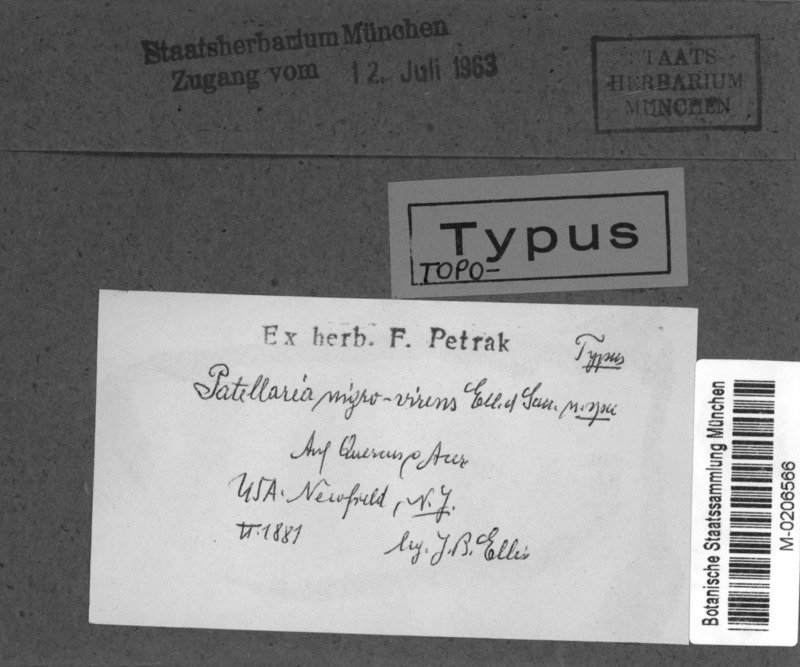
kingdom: Fungi
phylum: Ascomycota
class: Dothideomycetes
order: Patellariales
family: Patellariaceae
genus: Patellaria
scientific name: Patellaria nigrovirens
